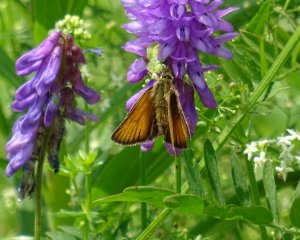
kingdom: Animalia
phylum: Arthropoda
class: Insecta
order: Lepidoptera
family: Hesperiidae
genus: Thymelicus
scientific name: Thymelicus lineola
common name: European Skipper
